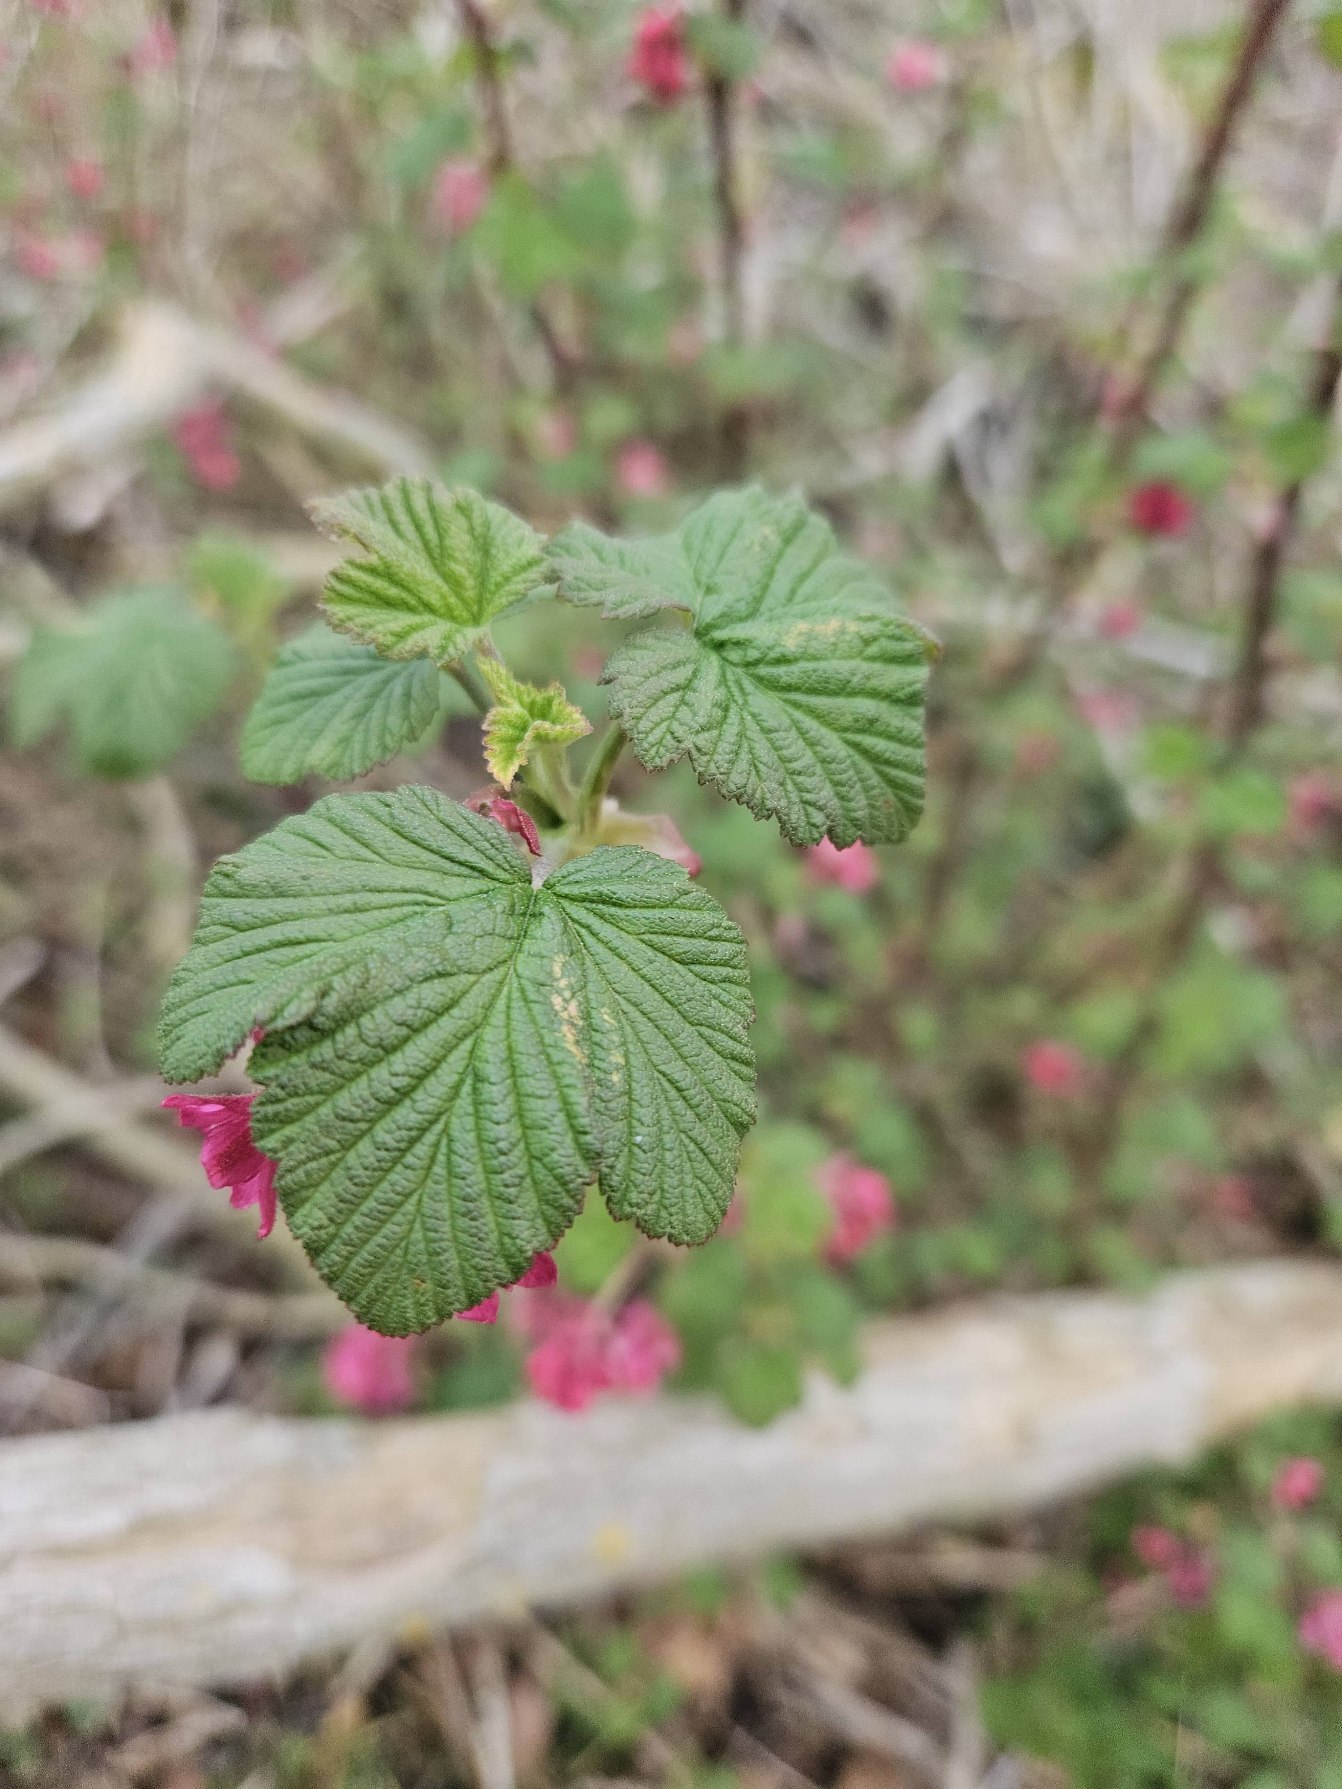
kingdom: Plantae
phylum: Tracheophyta
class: Magnoliopsida
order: Saxifragales
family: Grossulariaceae
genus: Ribes
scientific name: Ribes sanguineum
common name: Blod-ribs
